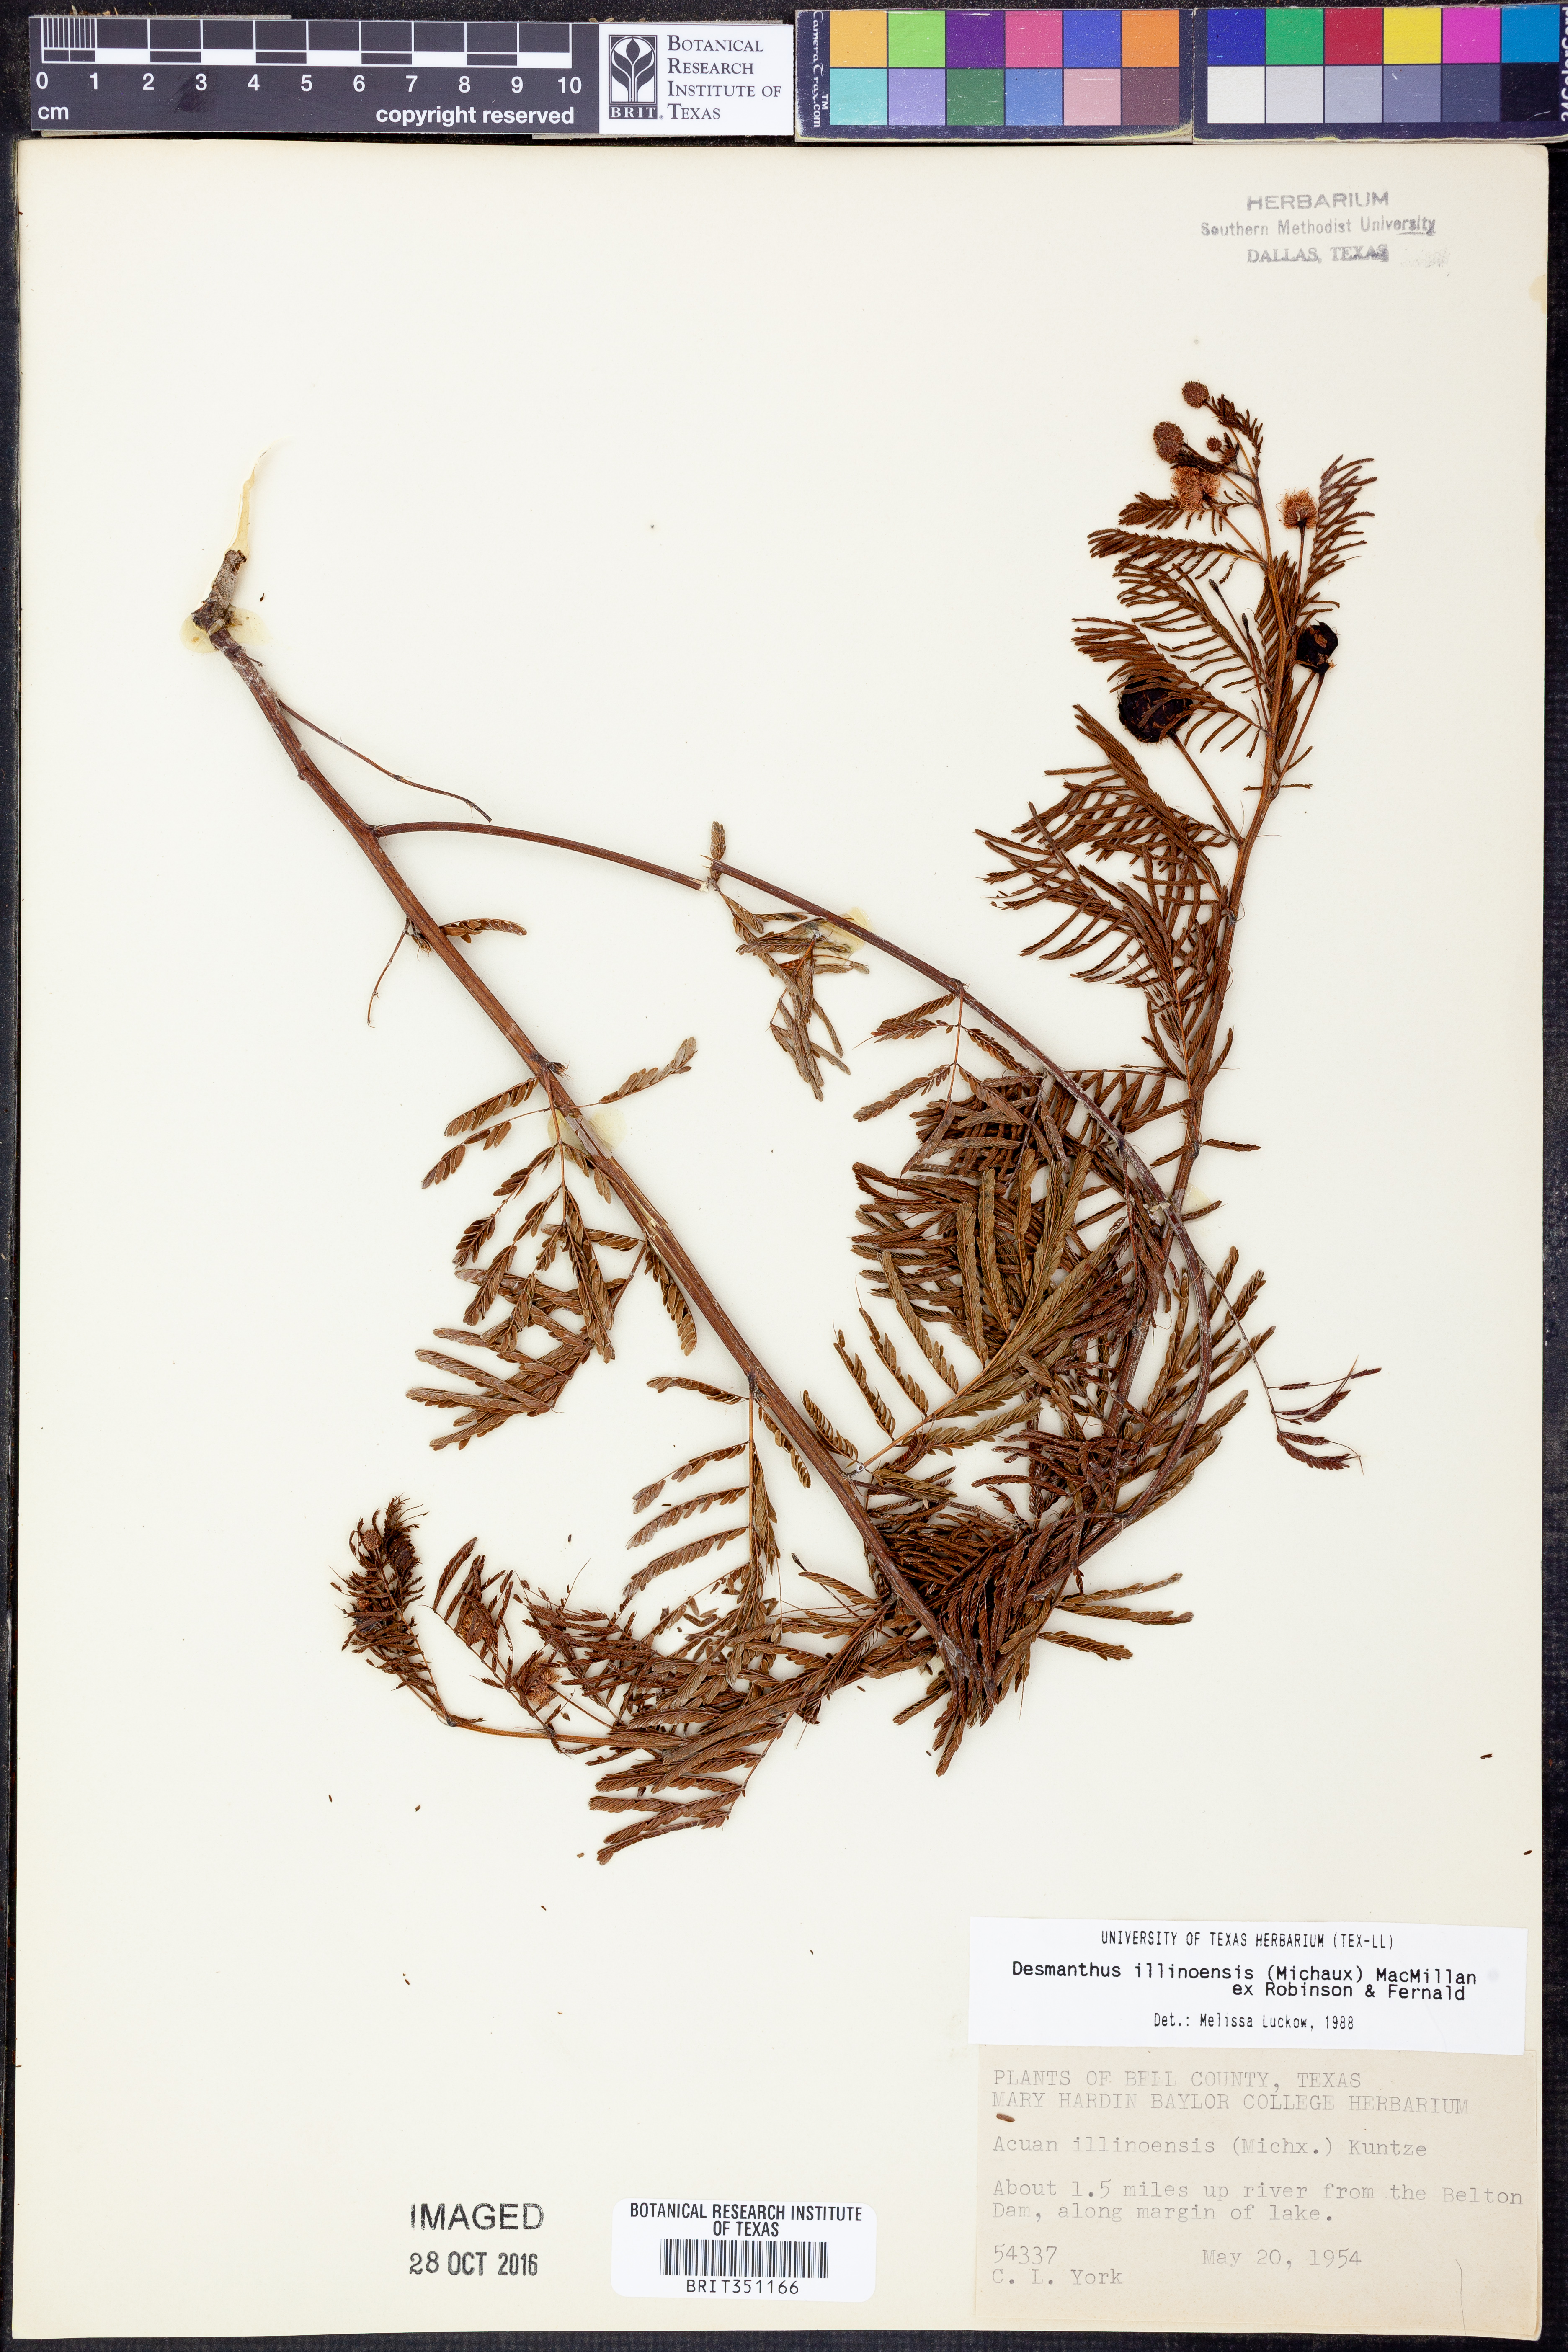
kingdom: Plantae
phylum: Tracheophyta
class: Magnoliopsida
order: Fabales
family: Fabaceae
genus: Desmanthus
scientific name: Desmanthus illinoensis
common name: Illinois bundle-flower
